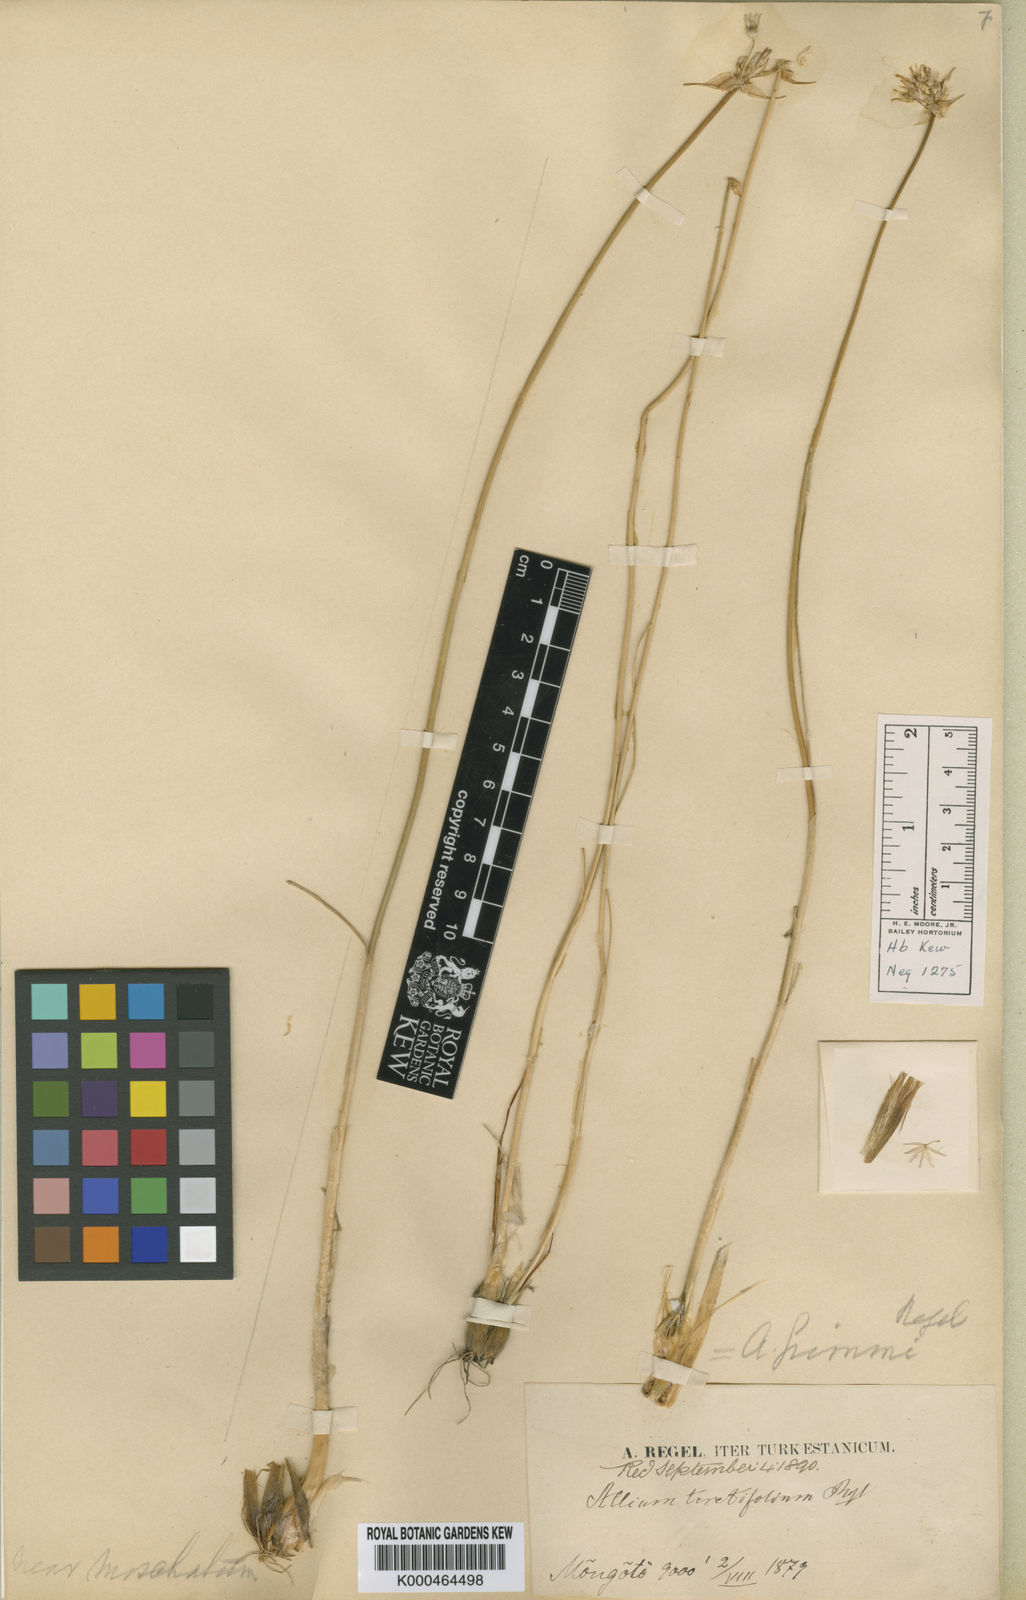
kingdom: Plantae
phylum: Tracheophyta
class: Liliopsida
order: Asparagales
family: Amaryllidaceae
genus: Allium
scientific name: Allium teretifolium
